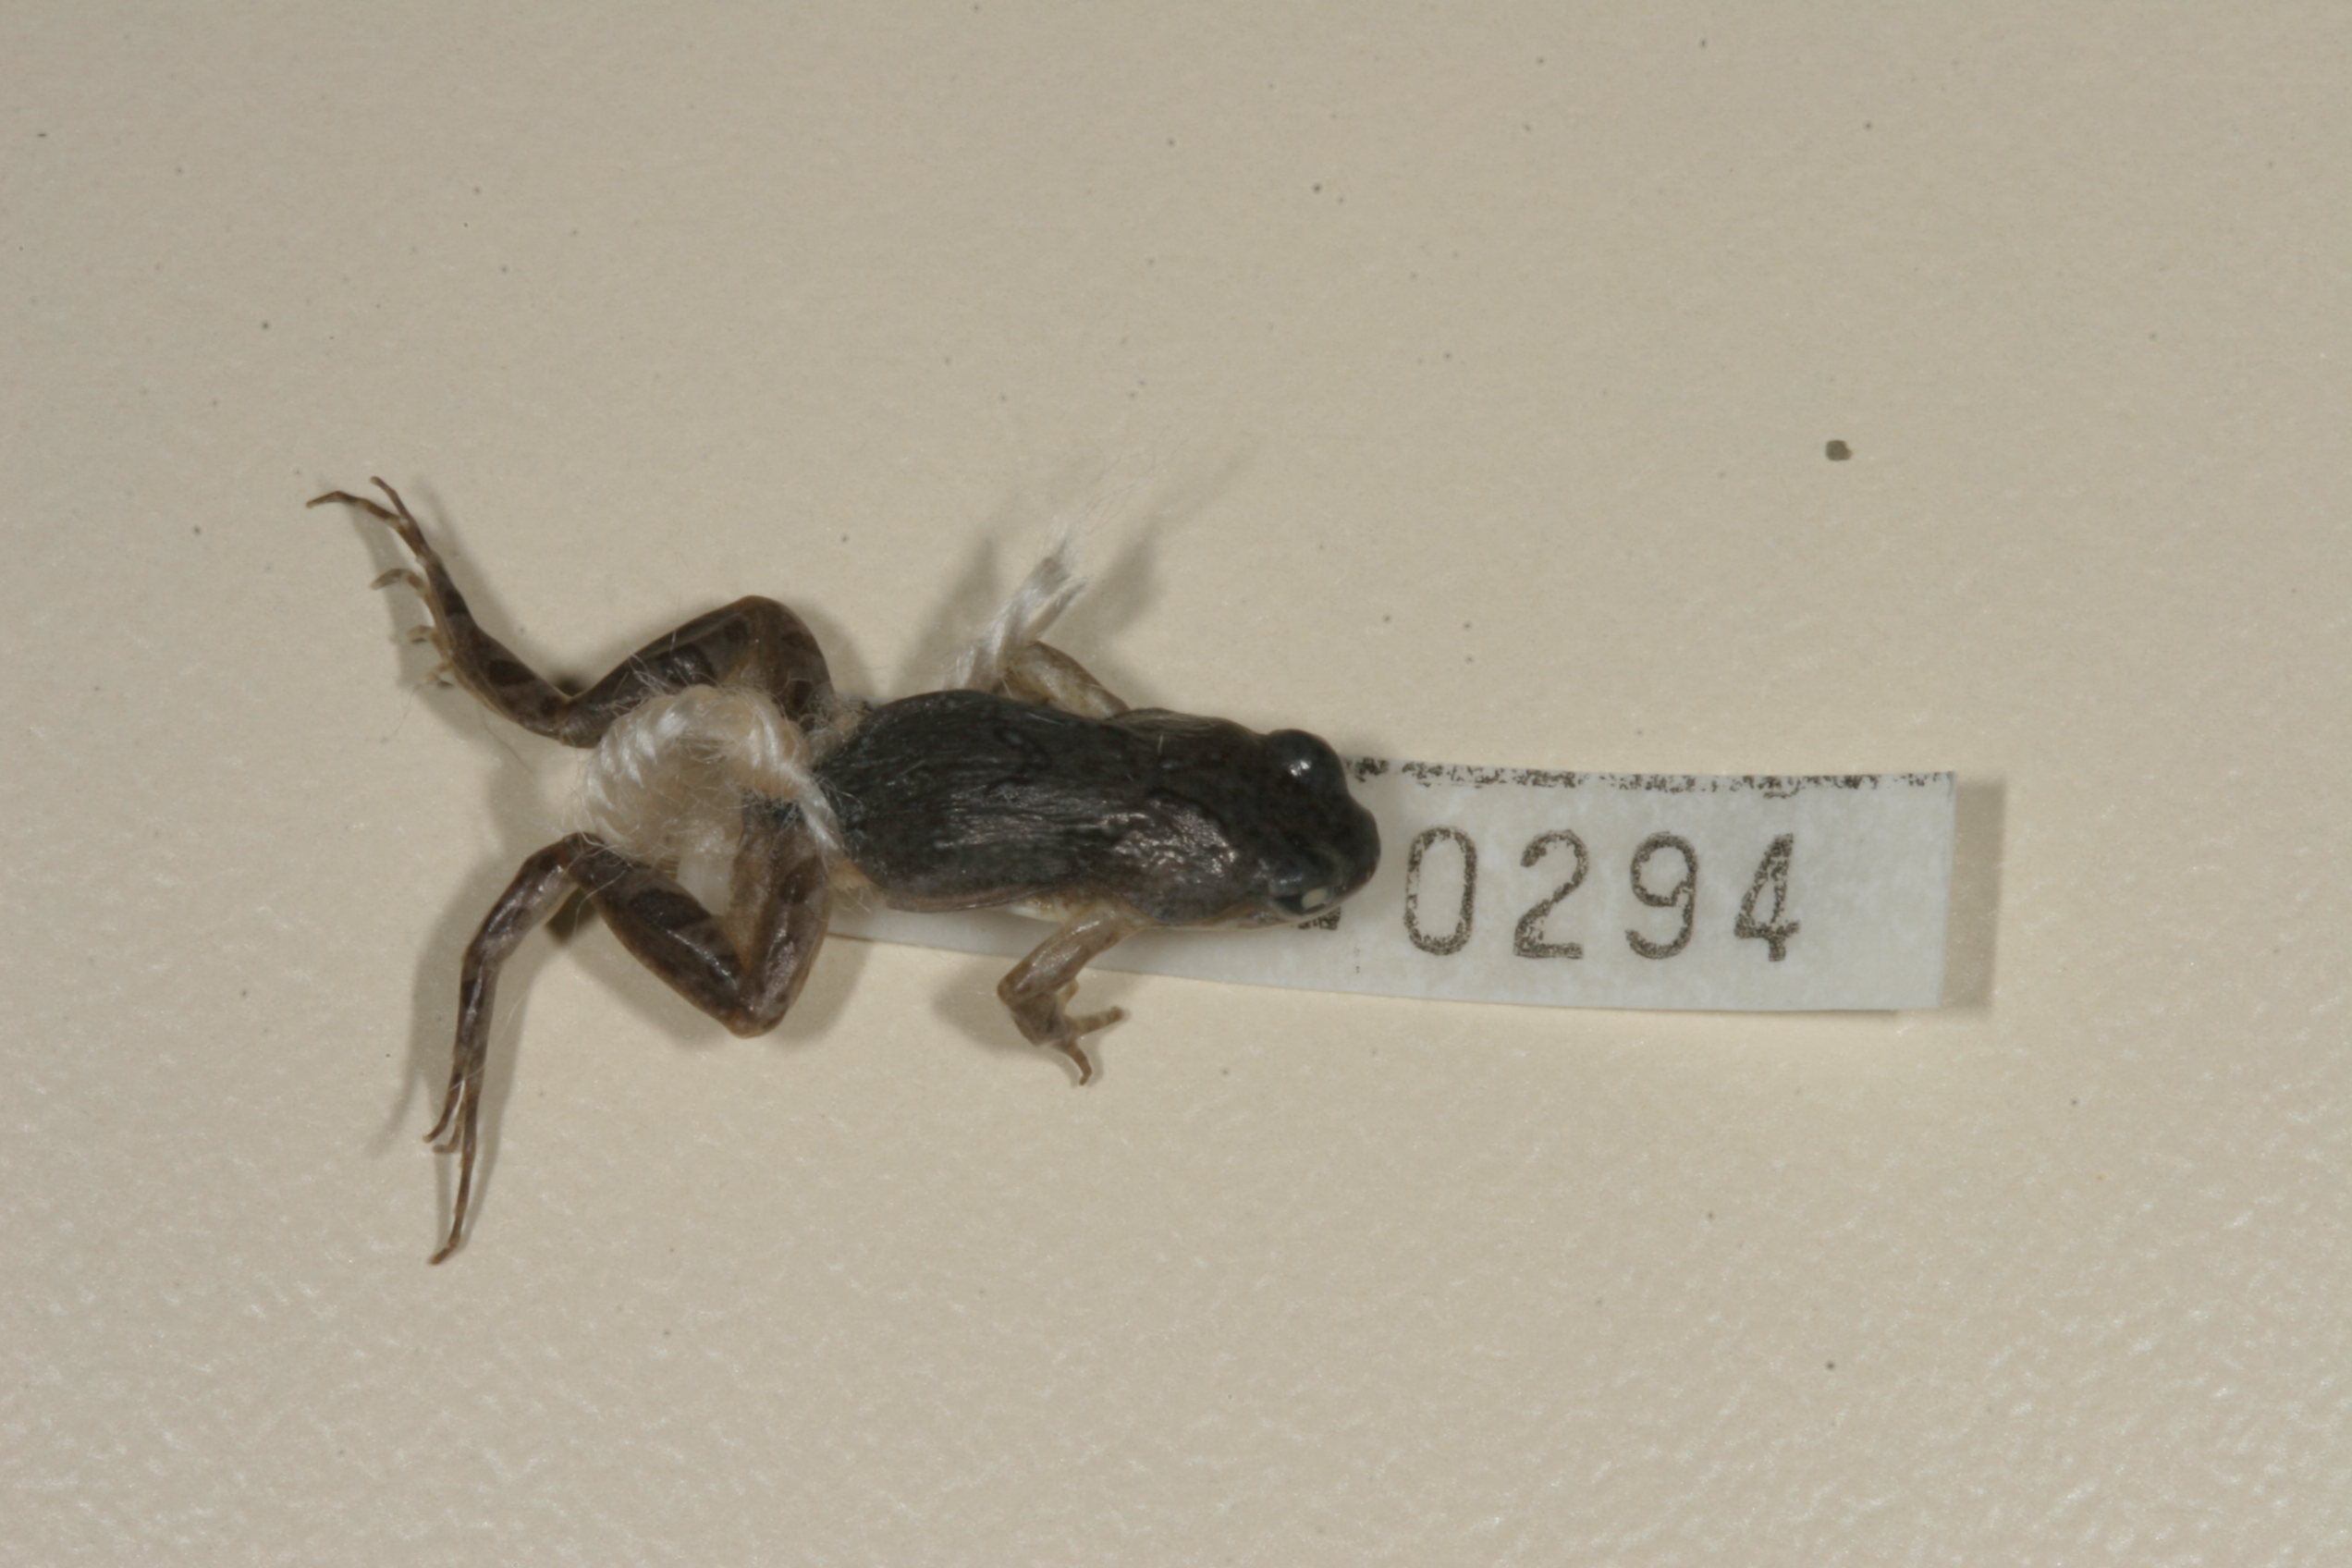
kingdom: Animalia
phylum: Chordata
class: Amphibia
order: Anura
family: Pyxicephalidae
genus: Cacosternum
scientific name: Cacosternum boettgeri
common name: Boettger's frog
